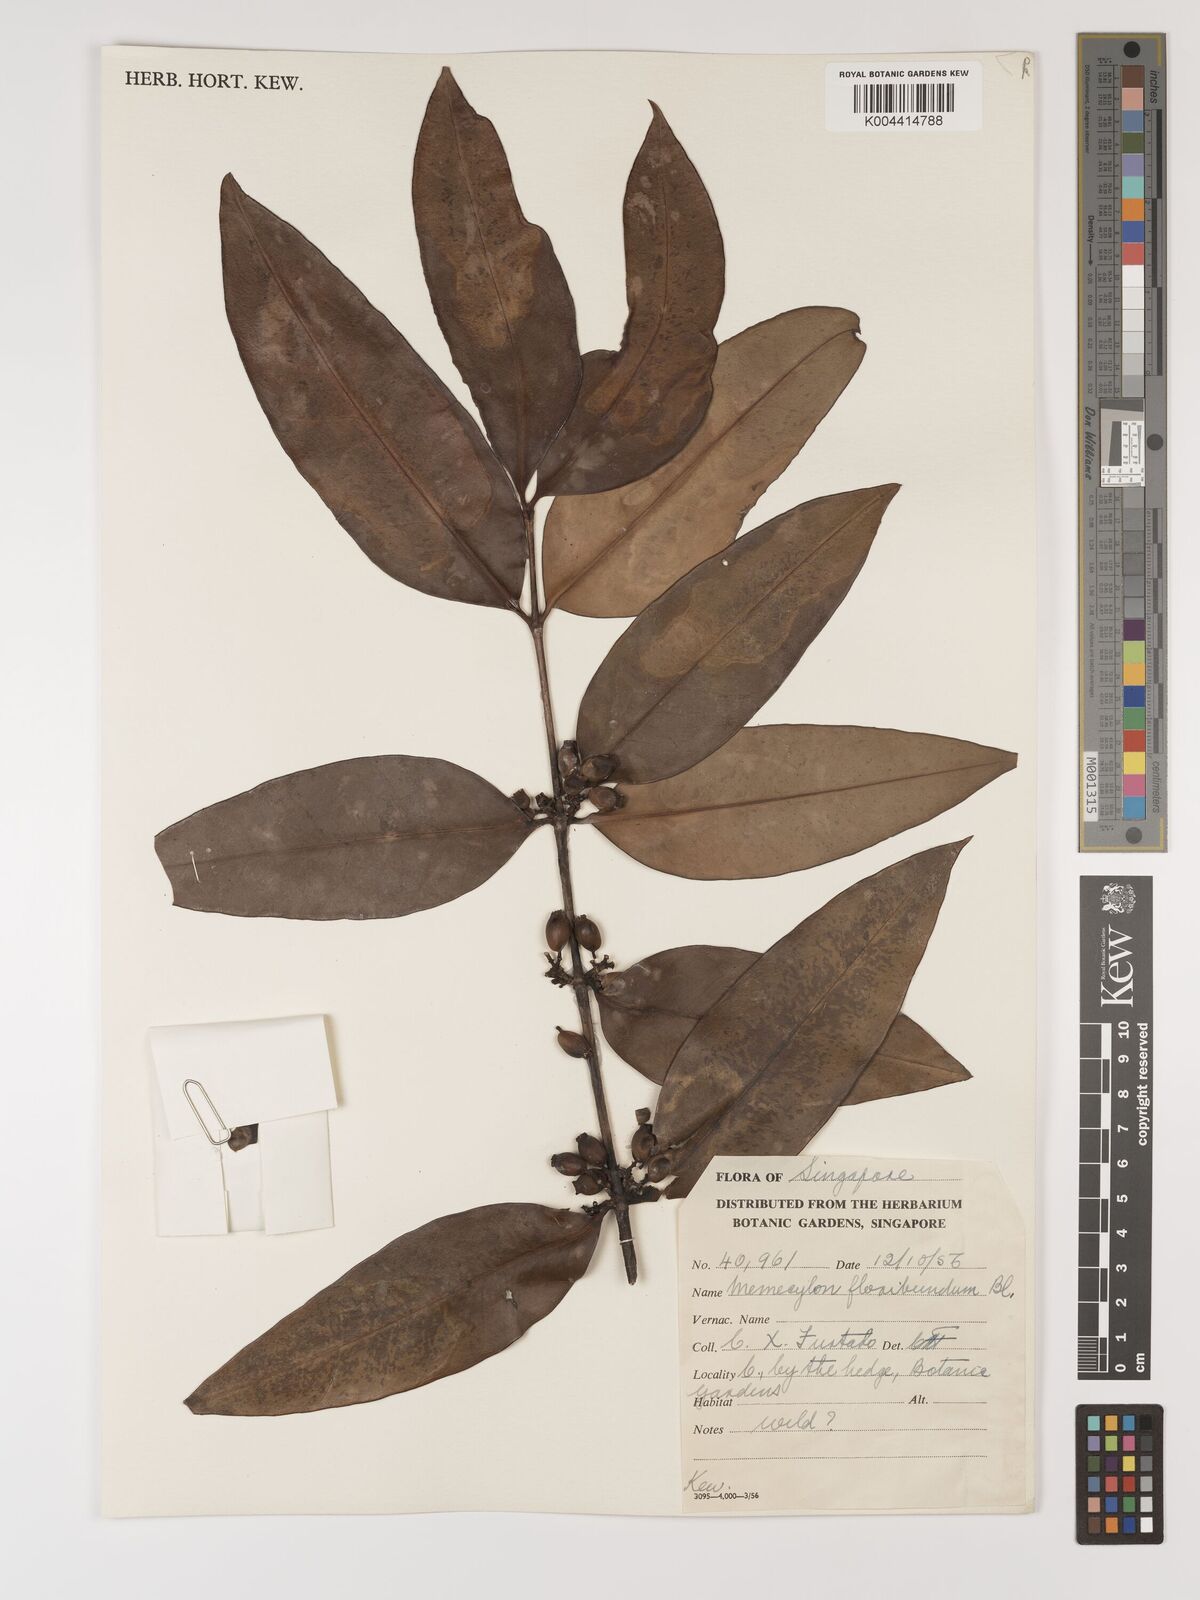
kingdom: Plantae
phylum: Tracheophyta
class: Magnoliopsida
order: Myrtales
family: Melastomataceae
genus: Memecylon
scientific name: Memecylon
